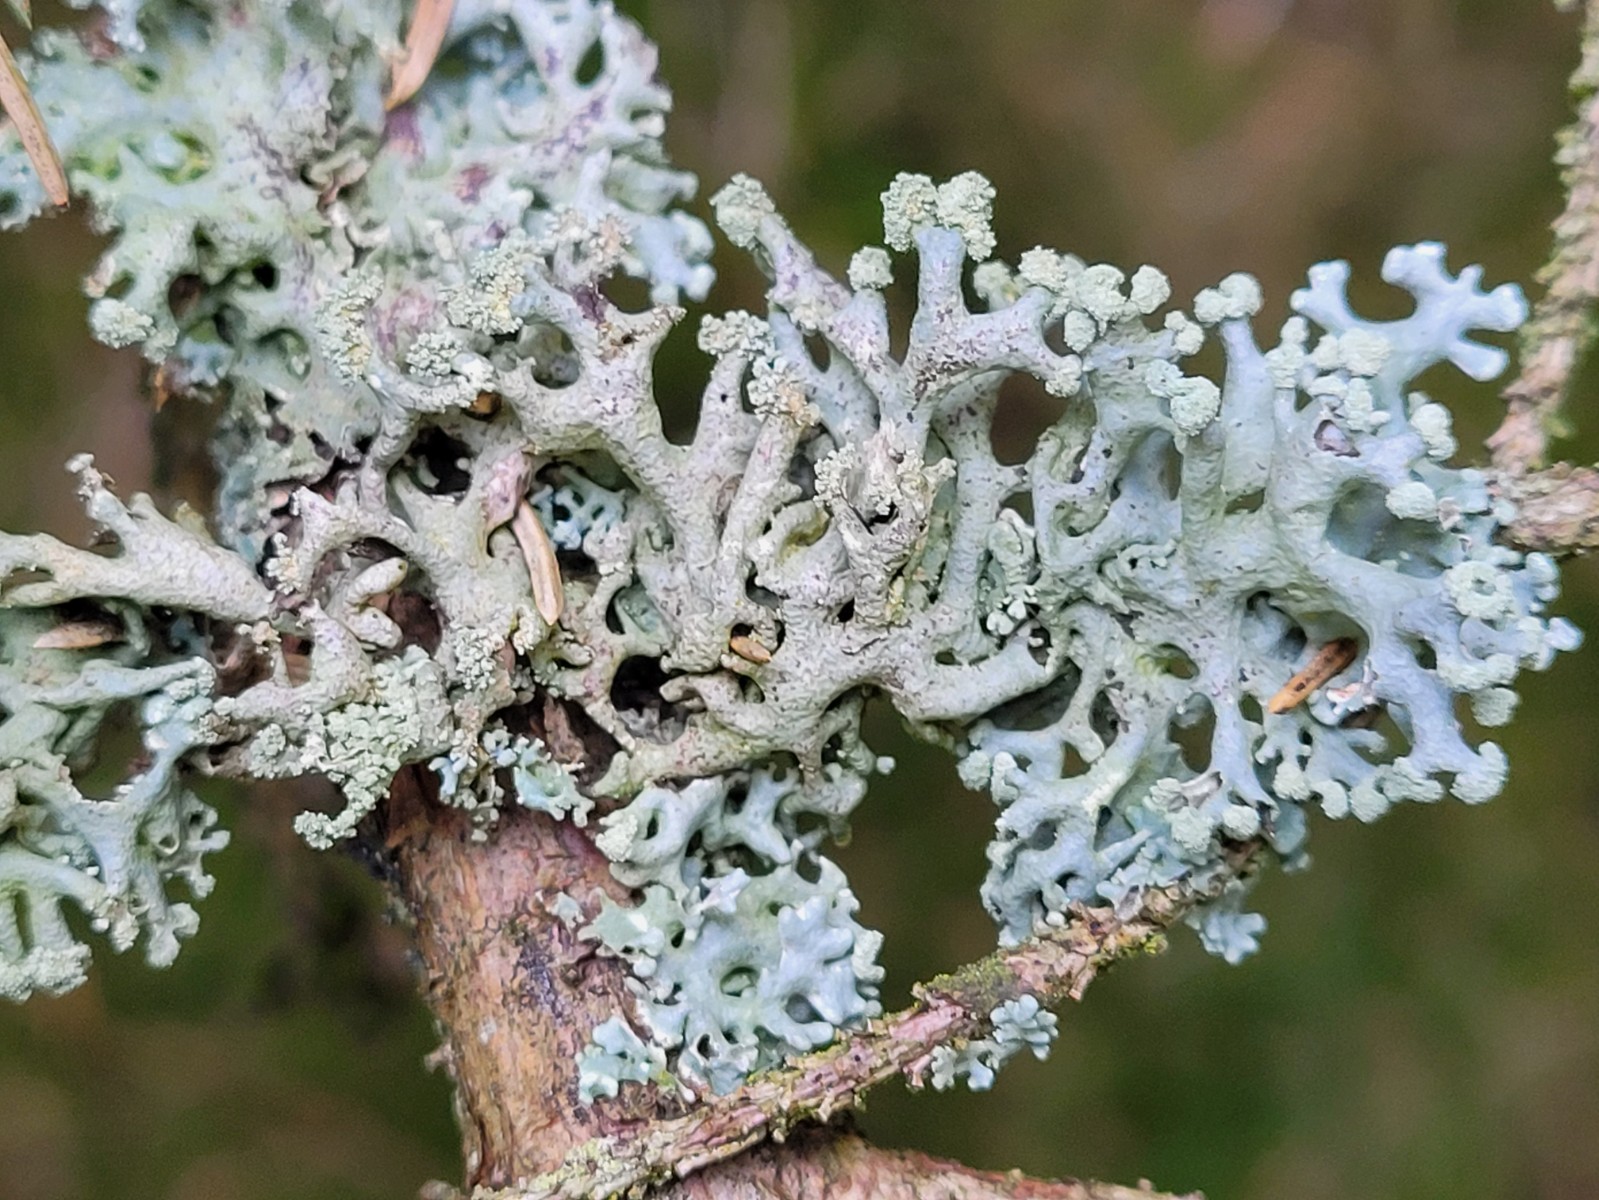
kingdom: Fungi
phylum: Ascomycota
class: Lecanoromycetes
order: Lecanorales
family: Parmeliaceae
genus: Hypogymnia
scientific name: Hypogymnia tubulosa
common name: finger-kvistlav
